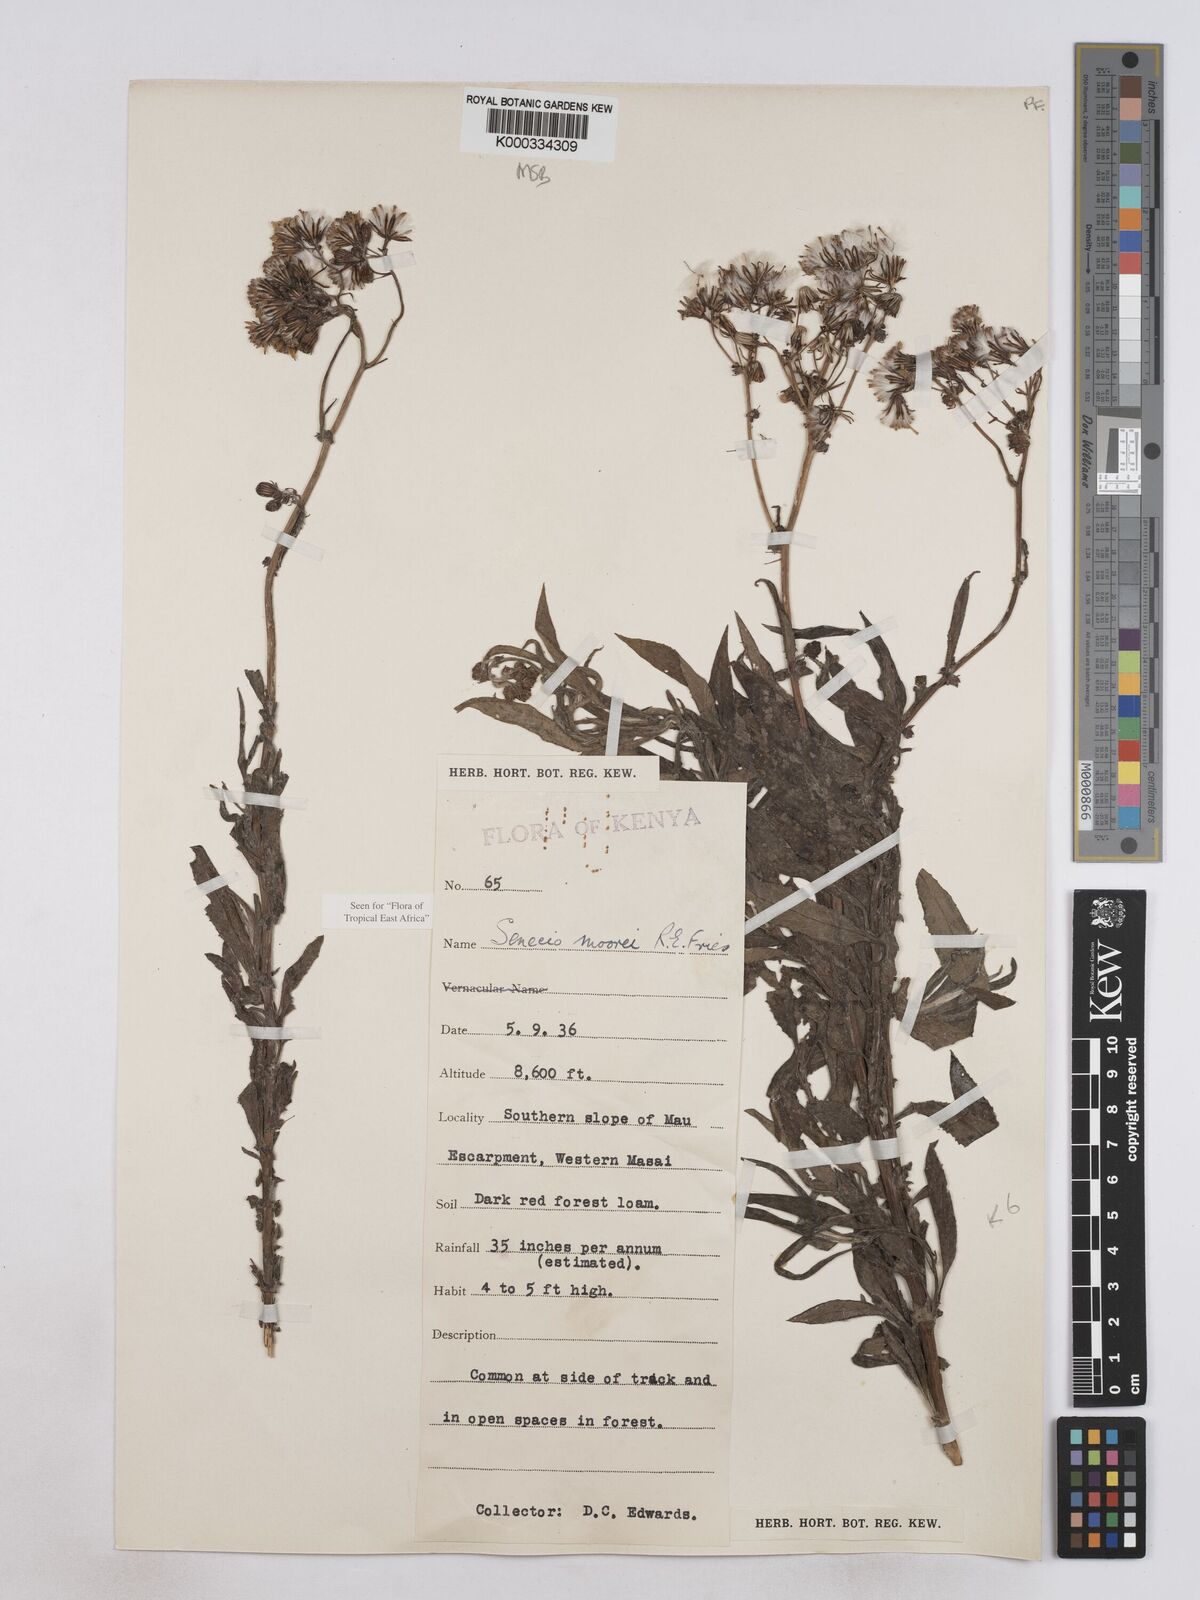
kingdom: Plantae
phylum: Tracheophyta
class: Magnoliopsida
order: Asterales
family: Asteraceae
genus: Senecio
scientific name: Senecio moorei
